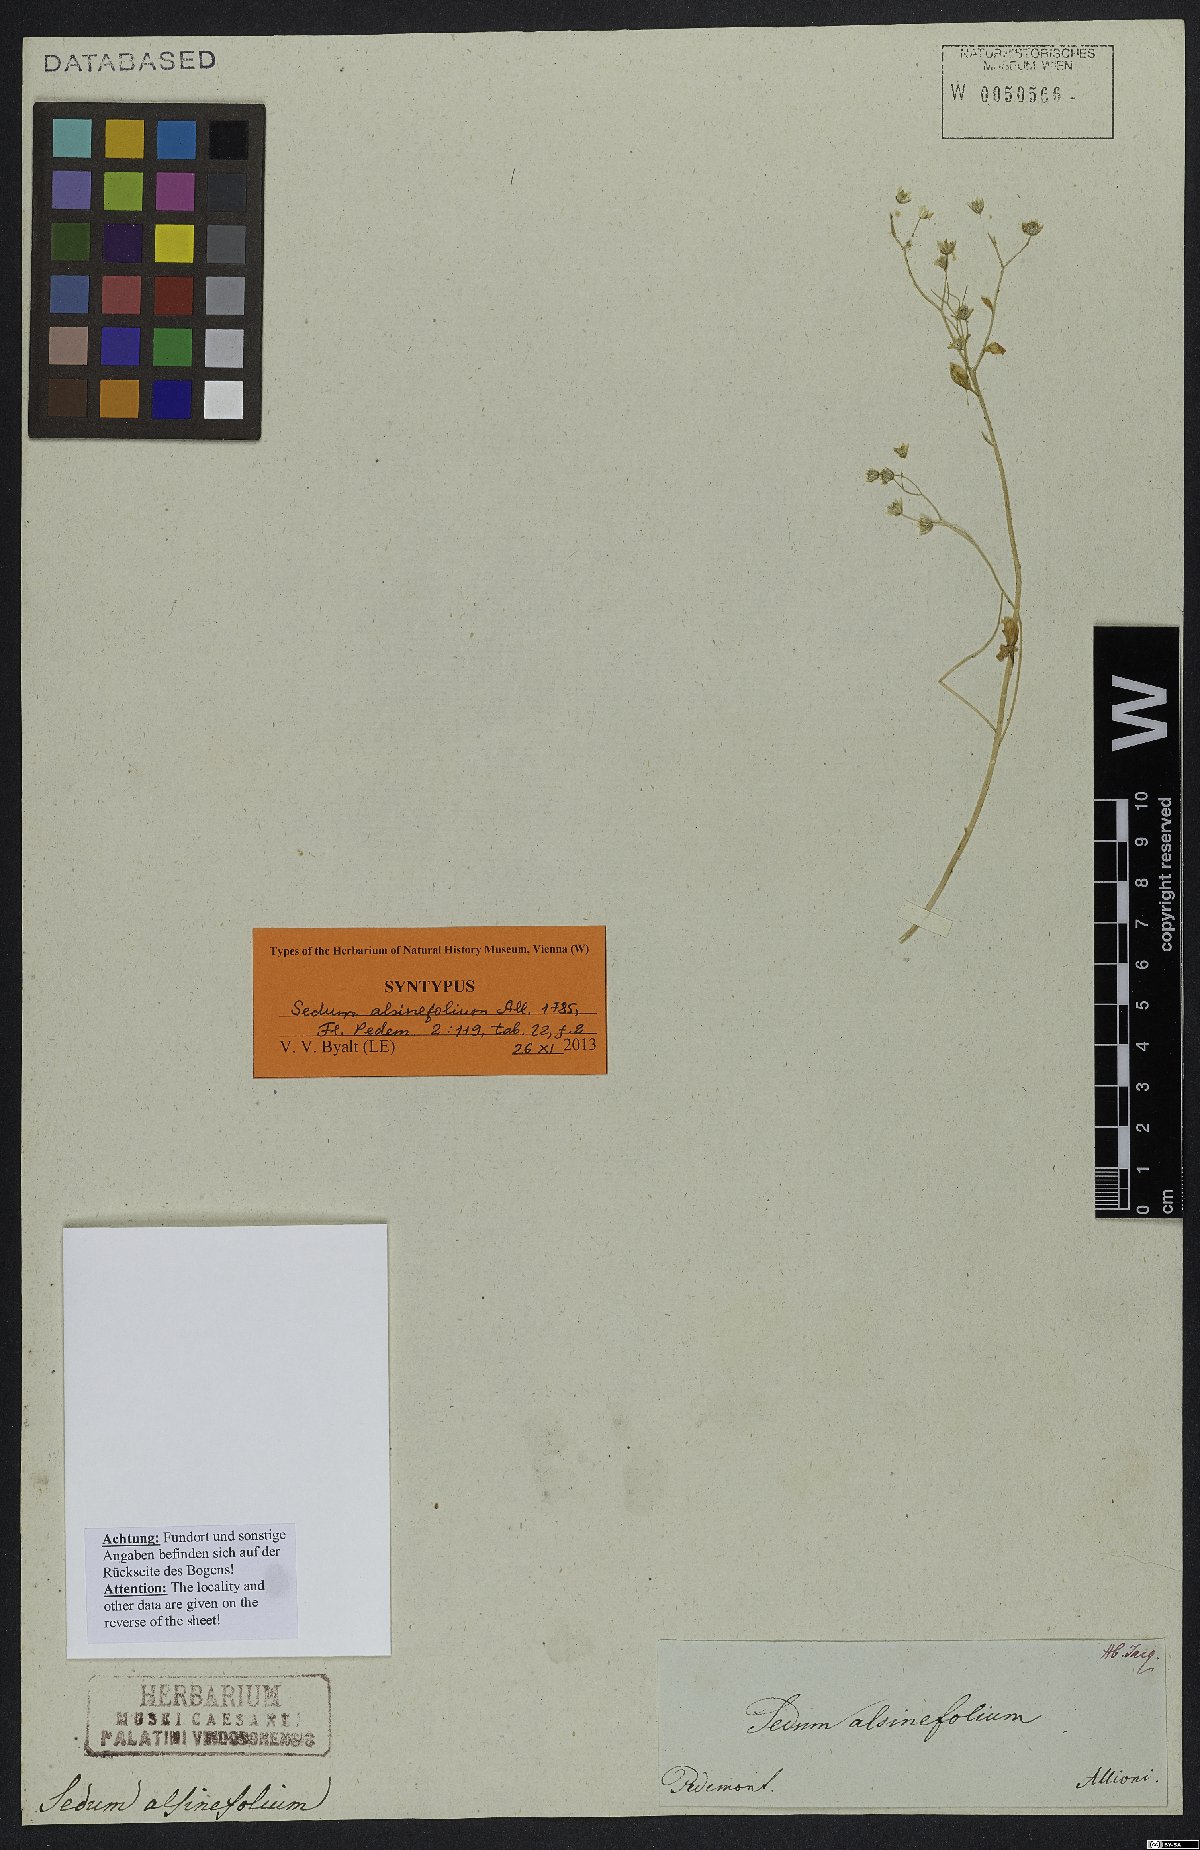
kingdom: Plantae
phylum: Tracheophyta
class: Magnoliopsida
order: Saxifragales
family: Crassulaceae
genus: Sedum
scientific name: Sedum alsinifolium
